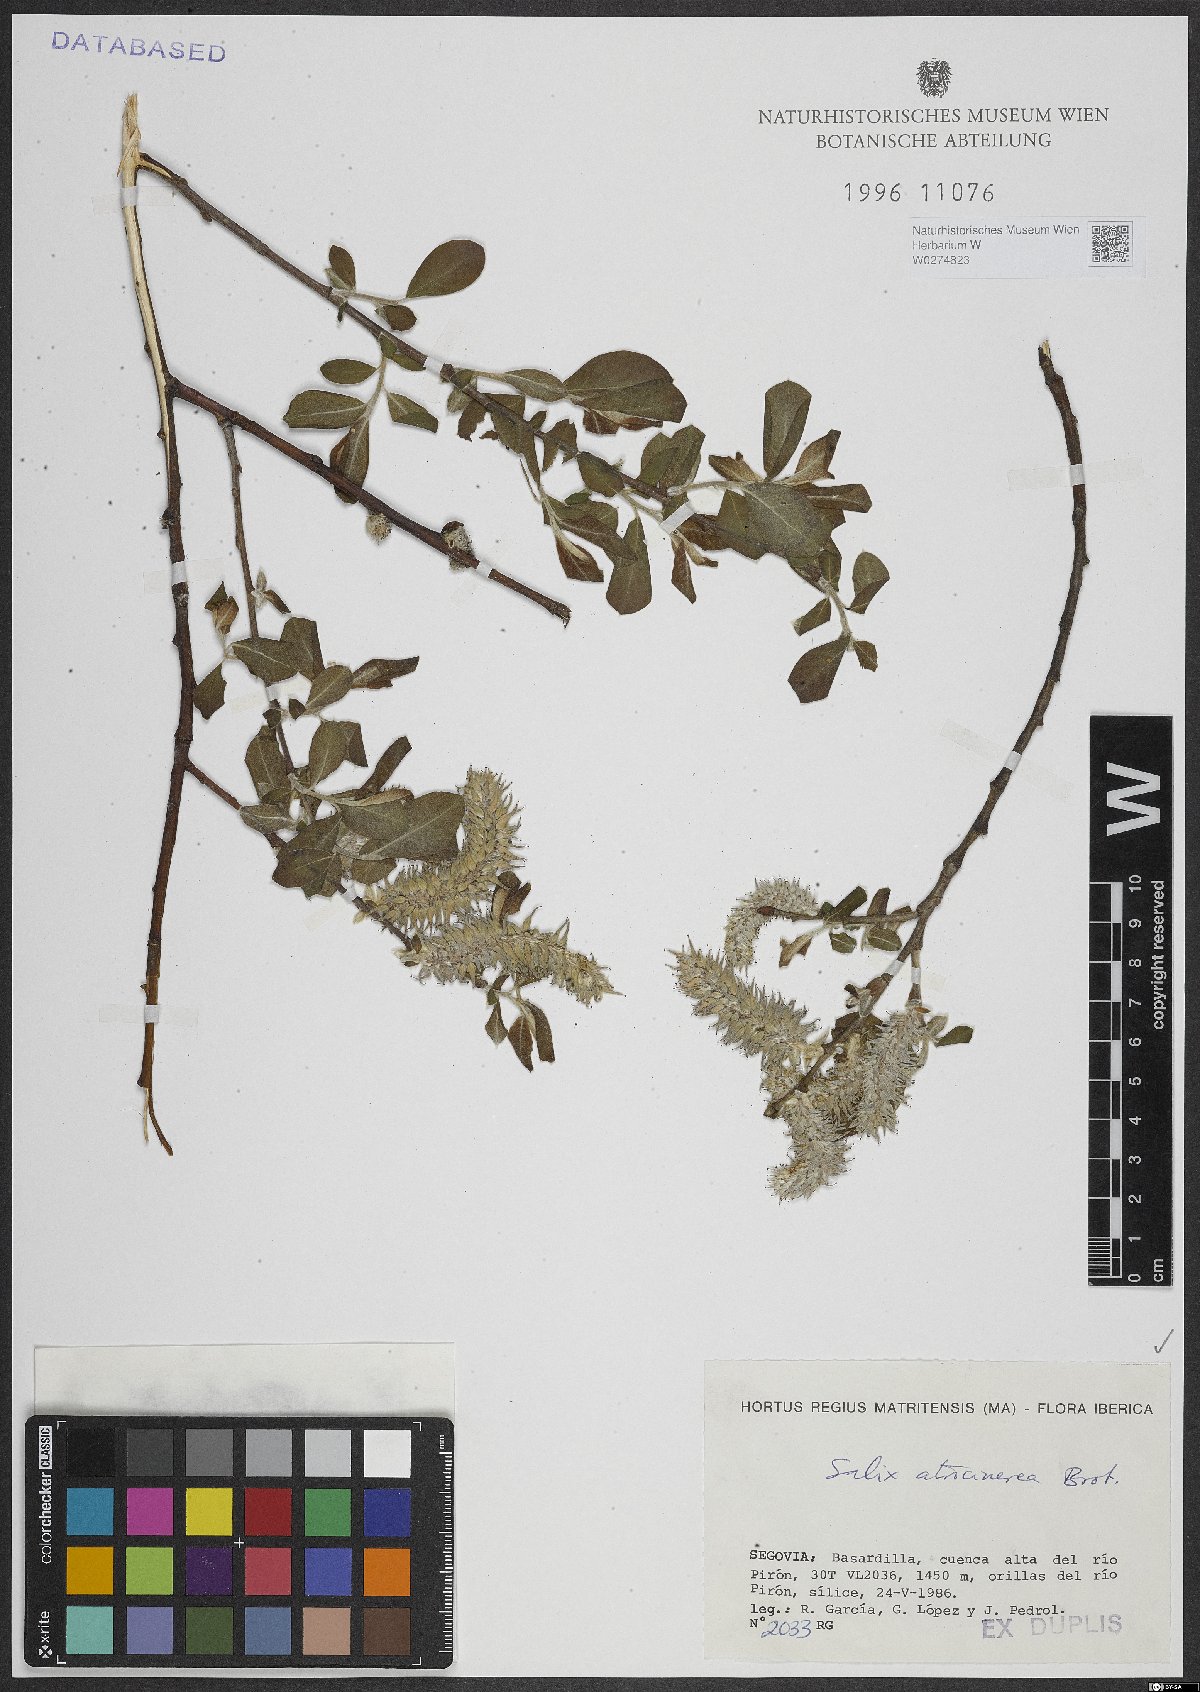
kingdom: Plantae
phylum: Tracheophyta
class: Magnoliopsida
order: Malpighiales
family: Salicaceae
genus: Salix
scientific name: Salix atrocinerea
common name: Rusty willow
